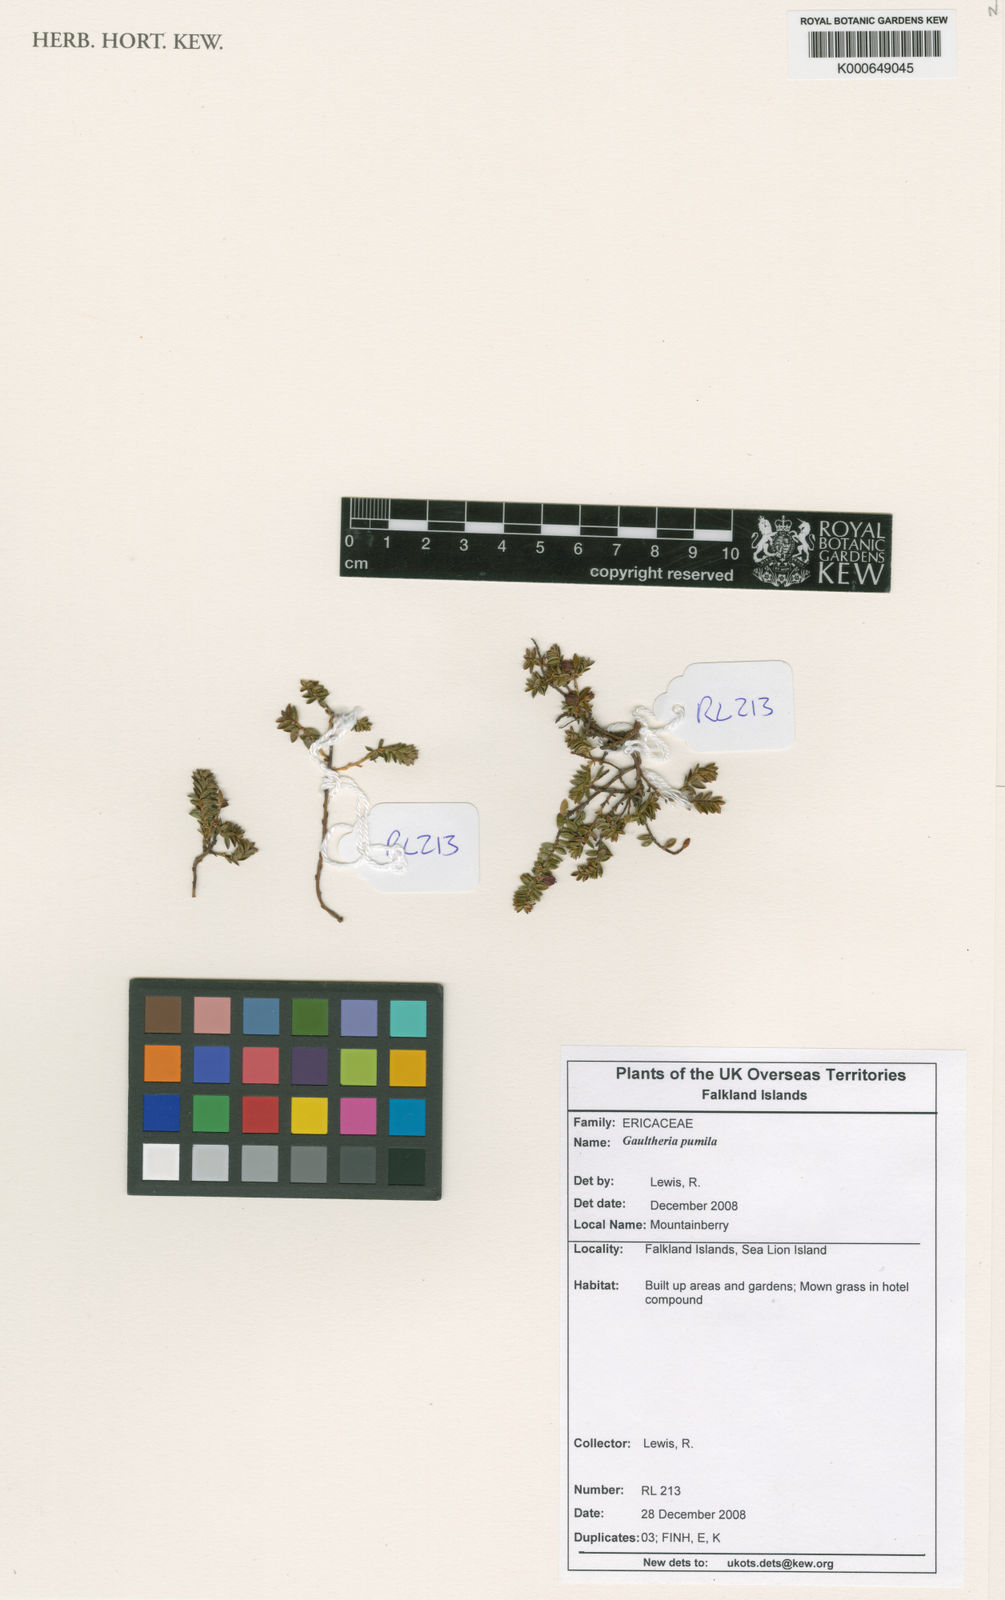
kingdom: Plantae
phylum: Tracheophyta
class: Magnoliopsida
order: Ericales
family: Ericaceae
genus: Gaultheria
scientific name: Gaultheria
